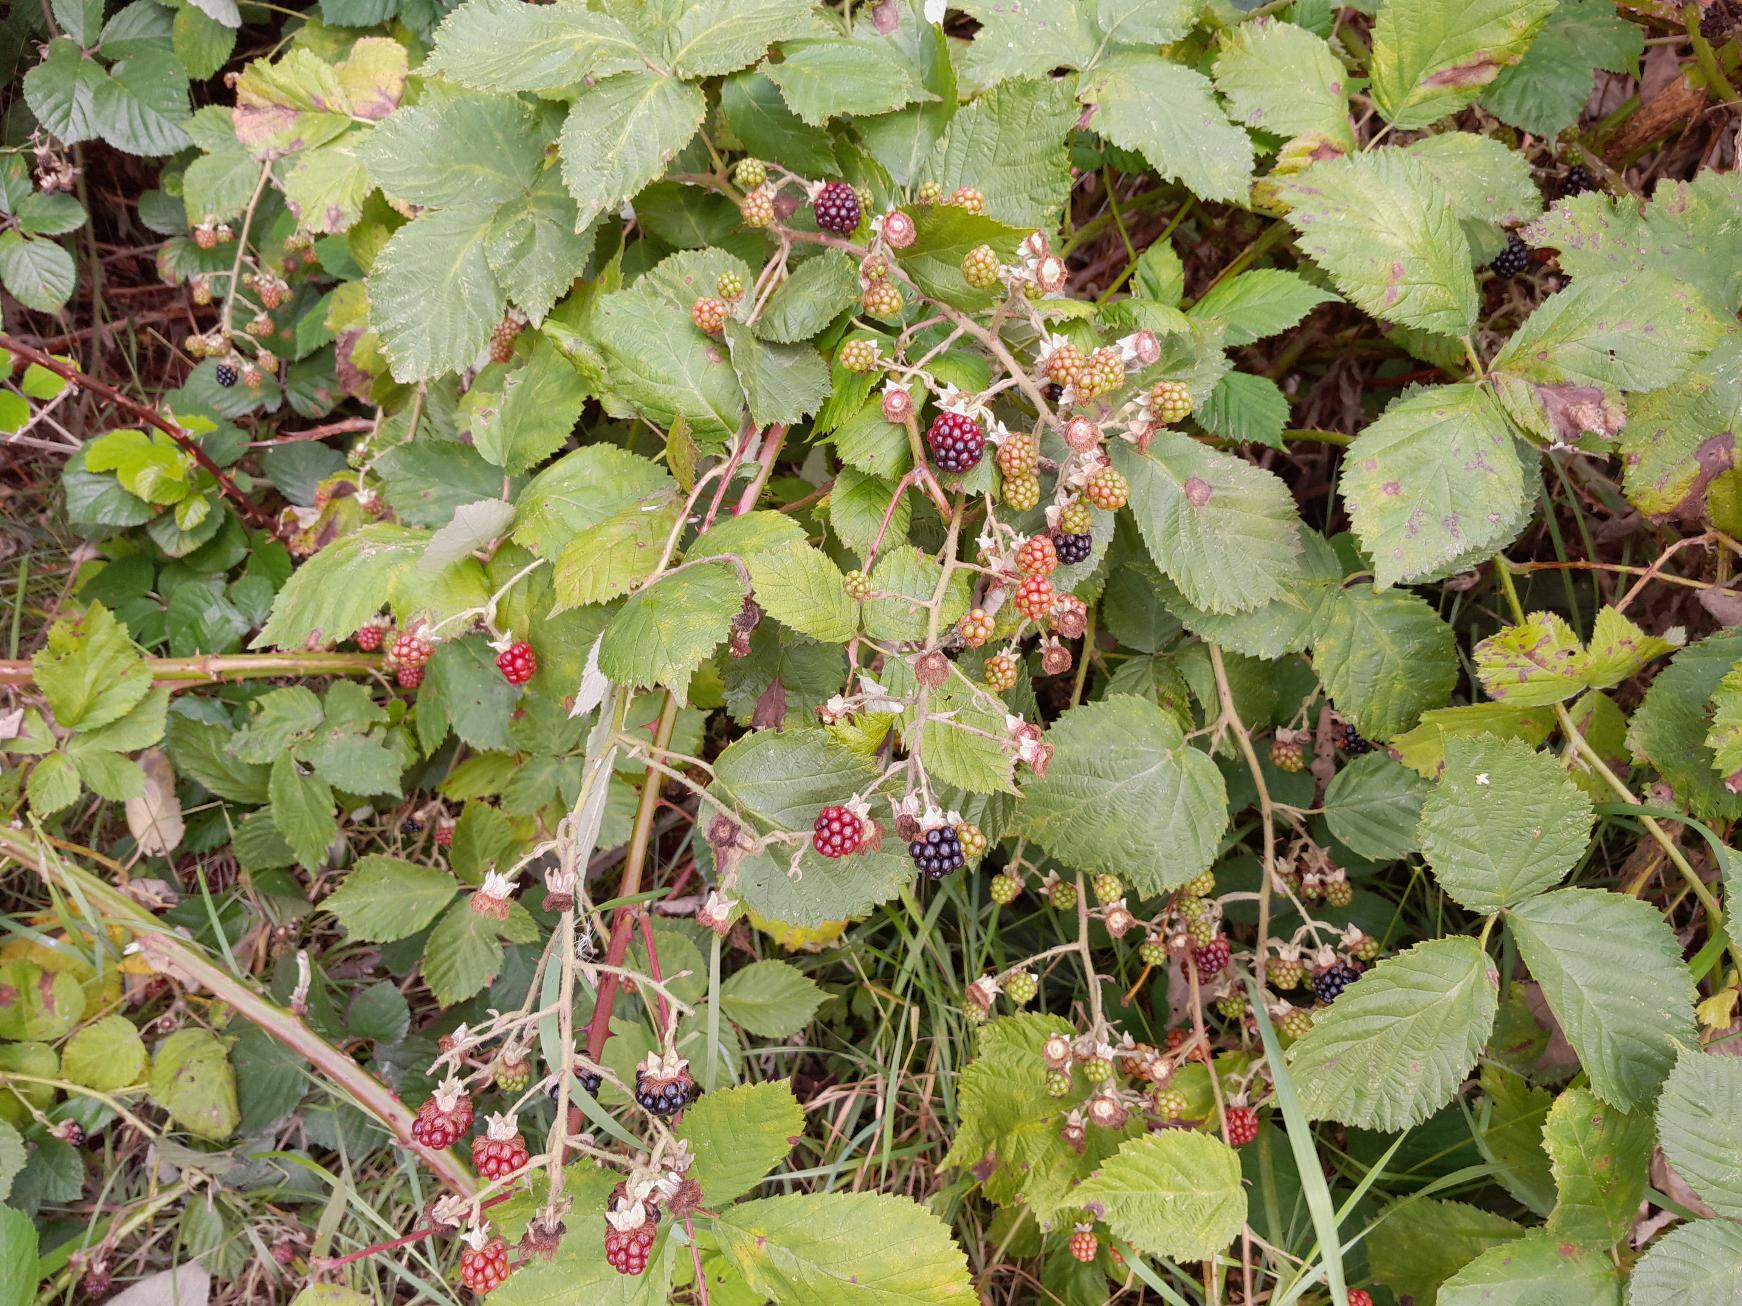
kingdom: Plantae
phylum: Tracheophyta
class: Magnoliopsida
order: Rosales
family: Rosaceae
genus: Rubus
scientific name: Rubus armeniacus
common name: Armensk brombær
